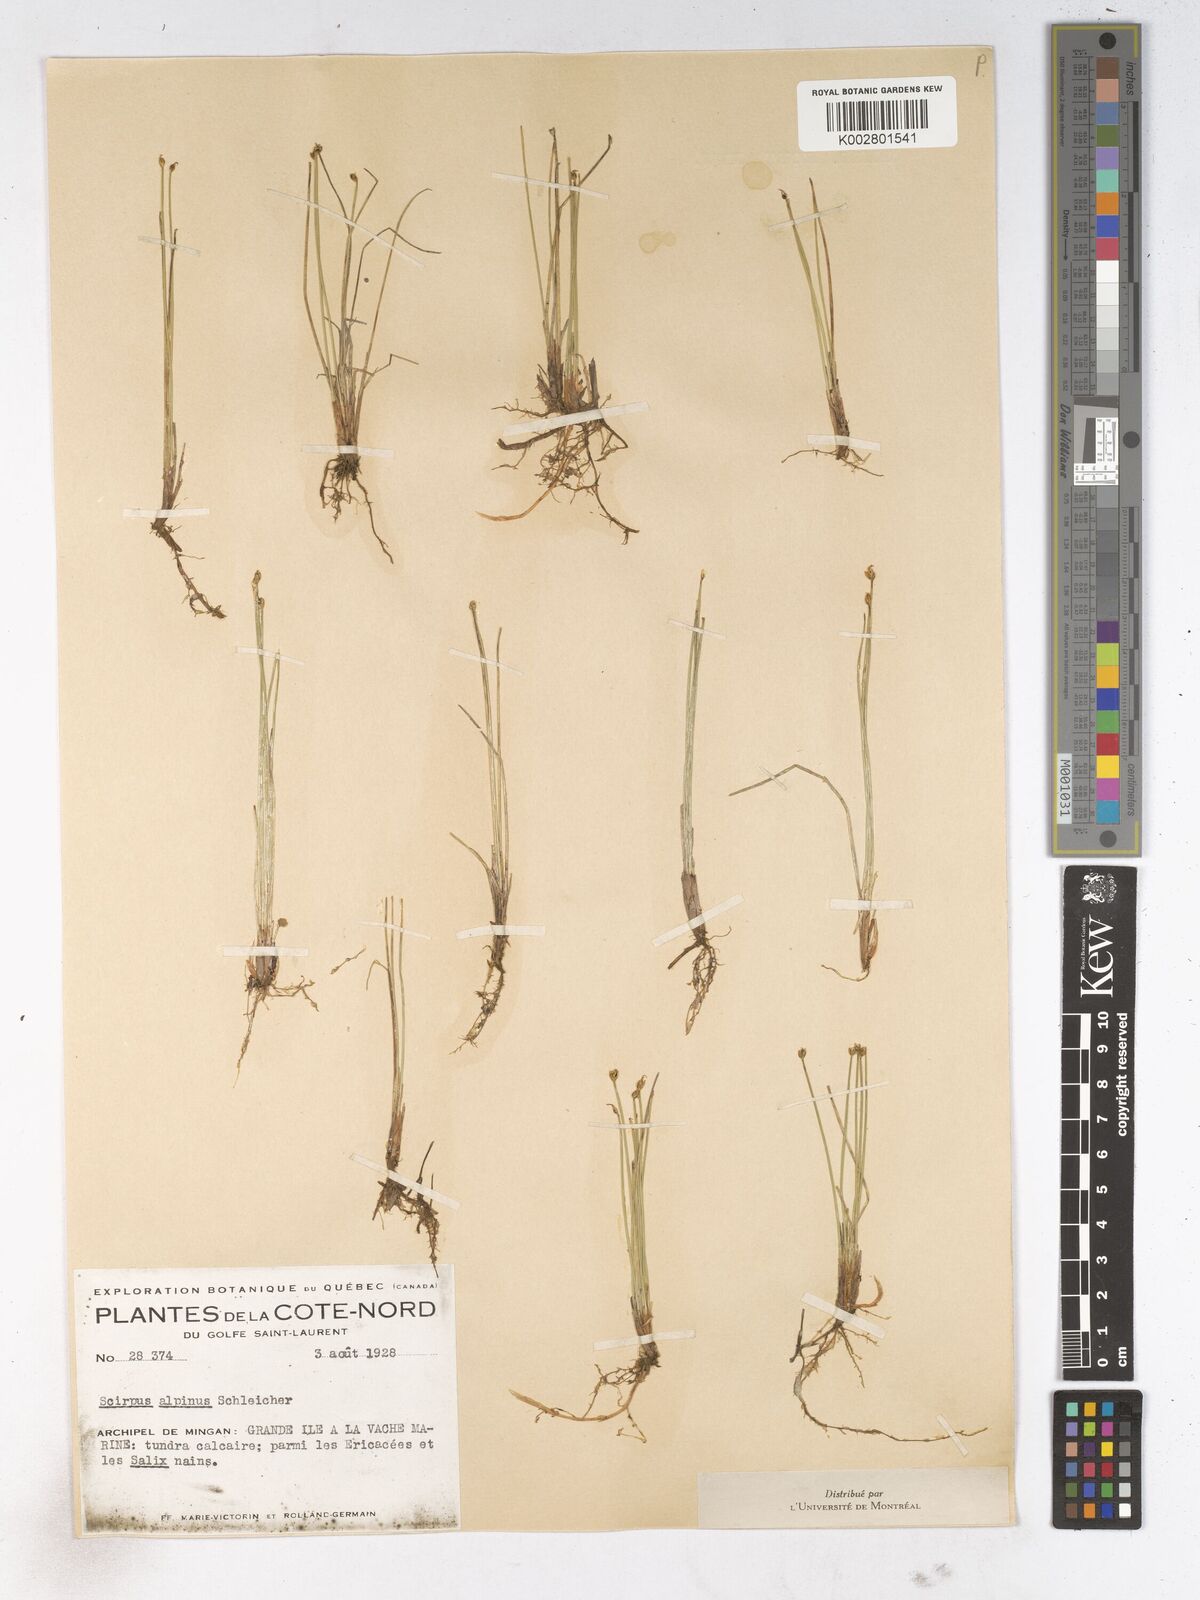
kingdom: Plantae
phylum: Tracheophyta
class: Liliopsida
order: Poales
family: Cyperaceae
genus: Trichophorum
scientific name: Trichophorum pumilum
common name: Rolland's bulrush
